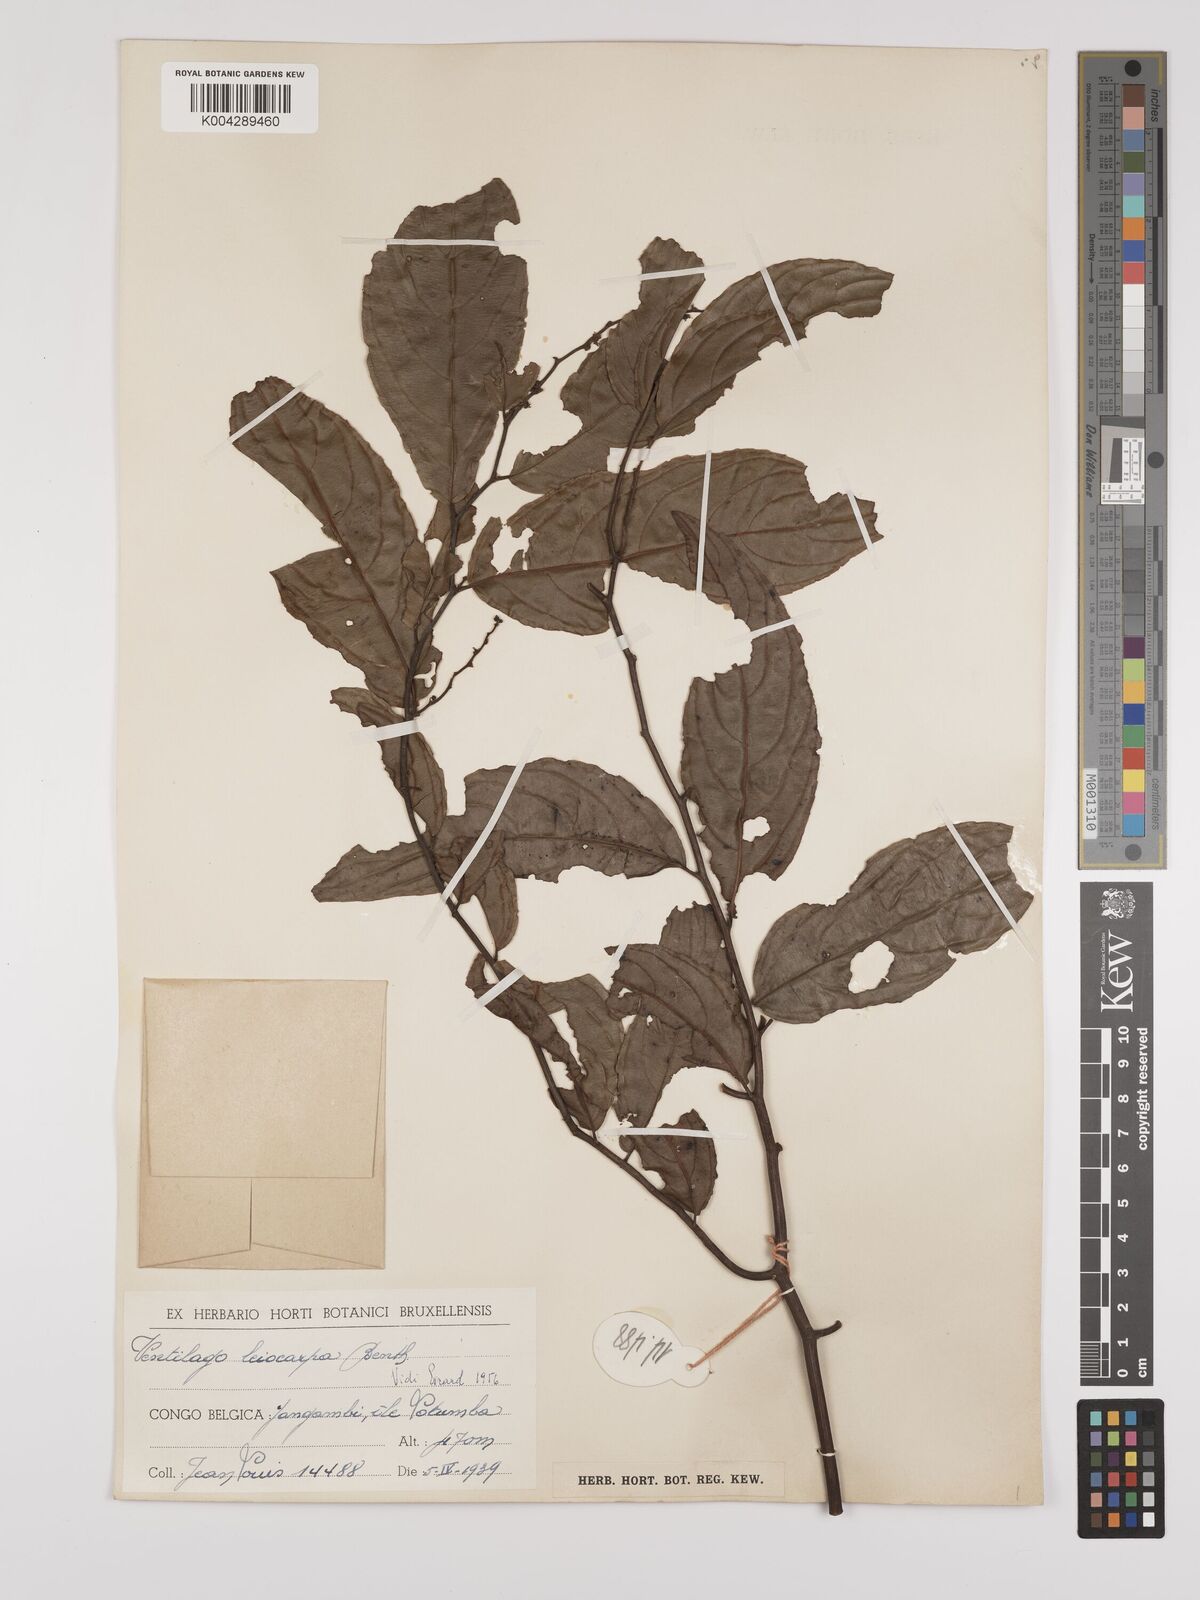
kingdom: Plantae
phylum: Tracheophyta
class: Magnoliopsida
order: Rosales
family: Rhamnaceae
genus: Ventilago
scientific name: Ventilago africana
